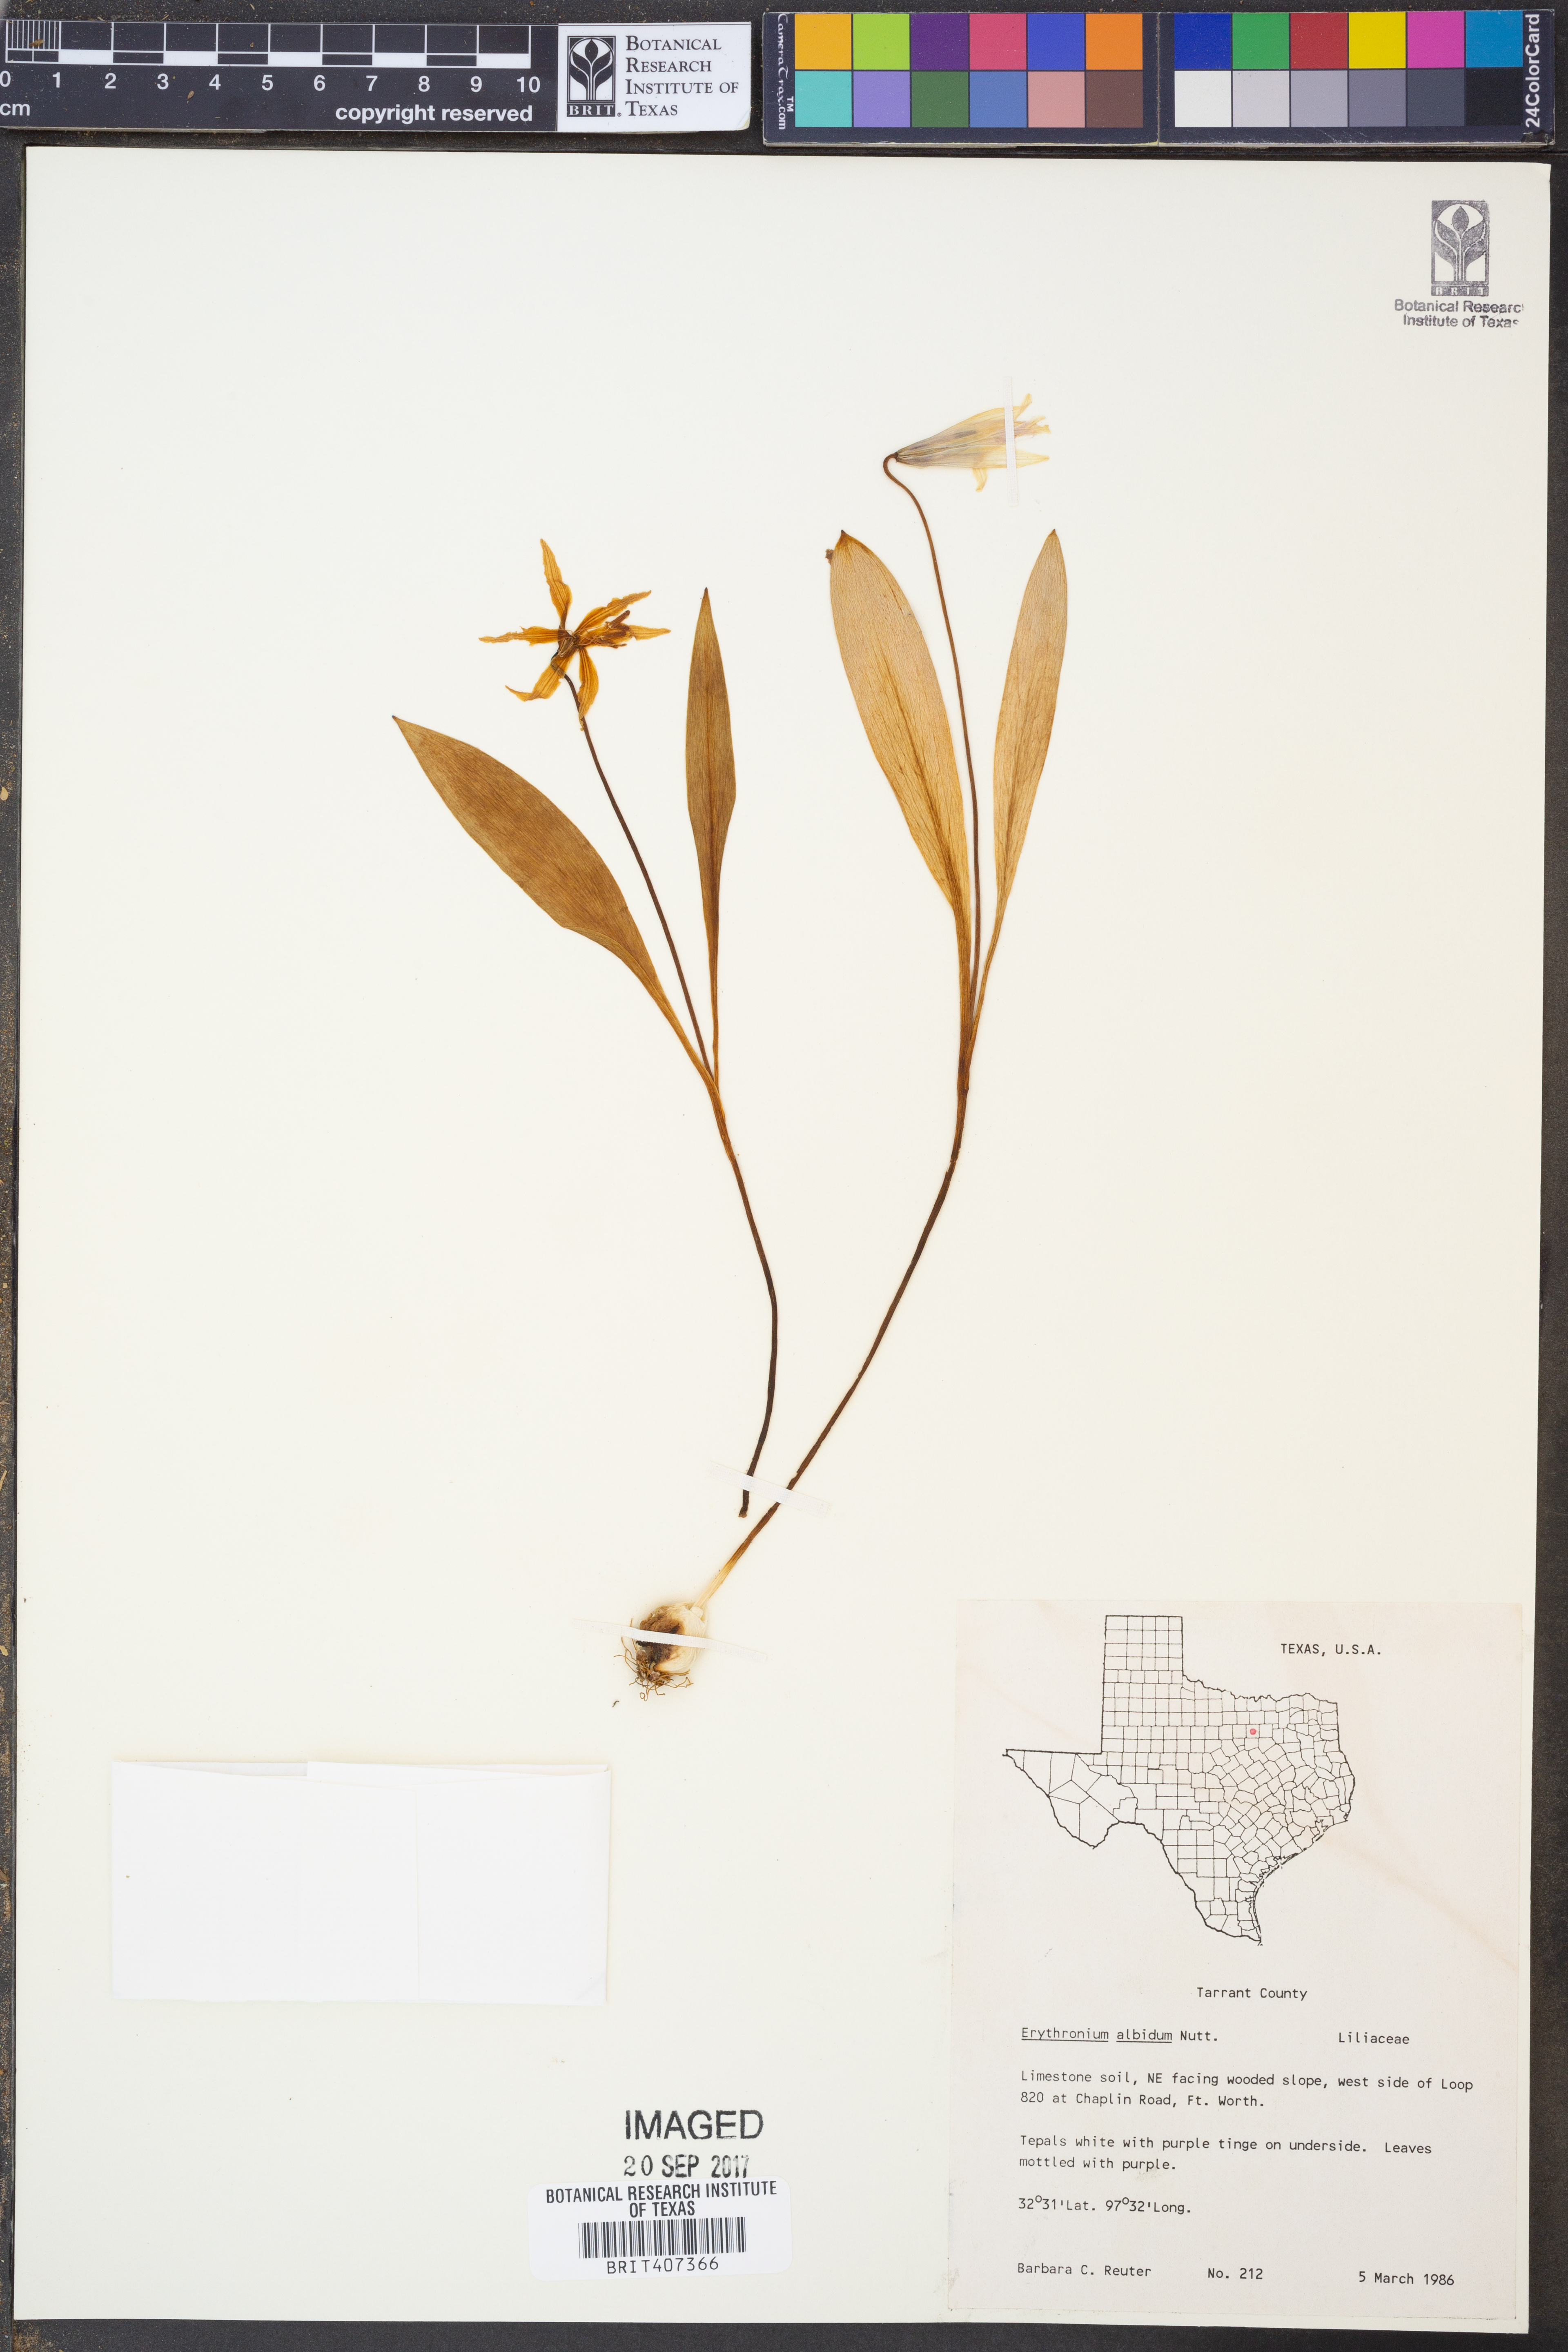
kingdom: Plantae
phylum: Tracheophyta
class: Liliopsida
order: Liliales
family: Liliaceae
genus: Erythronium
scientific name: Erythronium albidum
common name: White trout-lily
